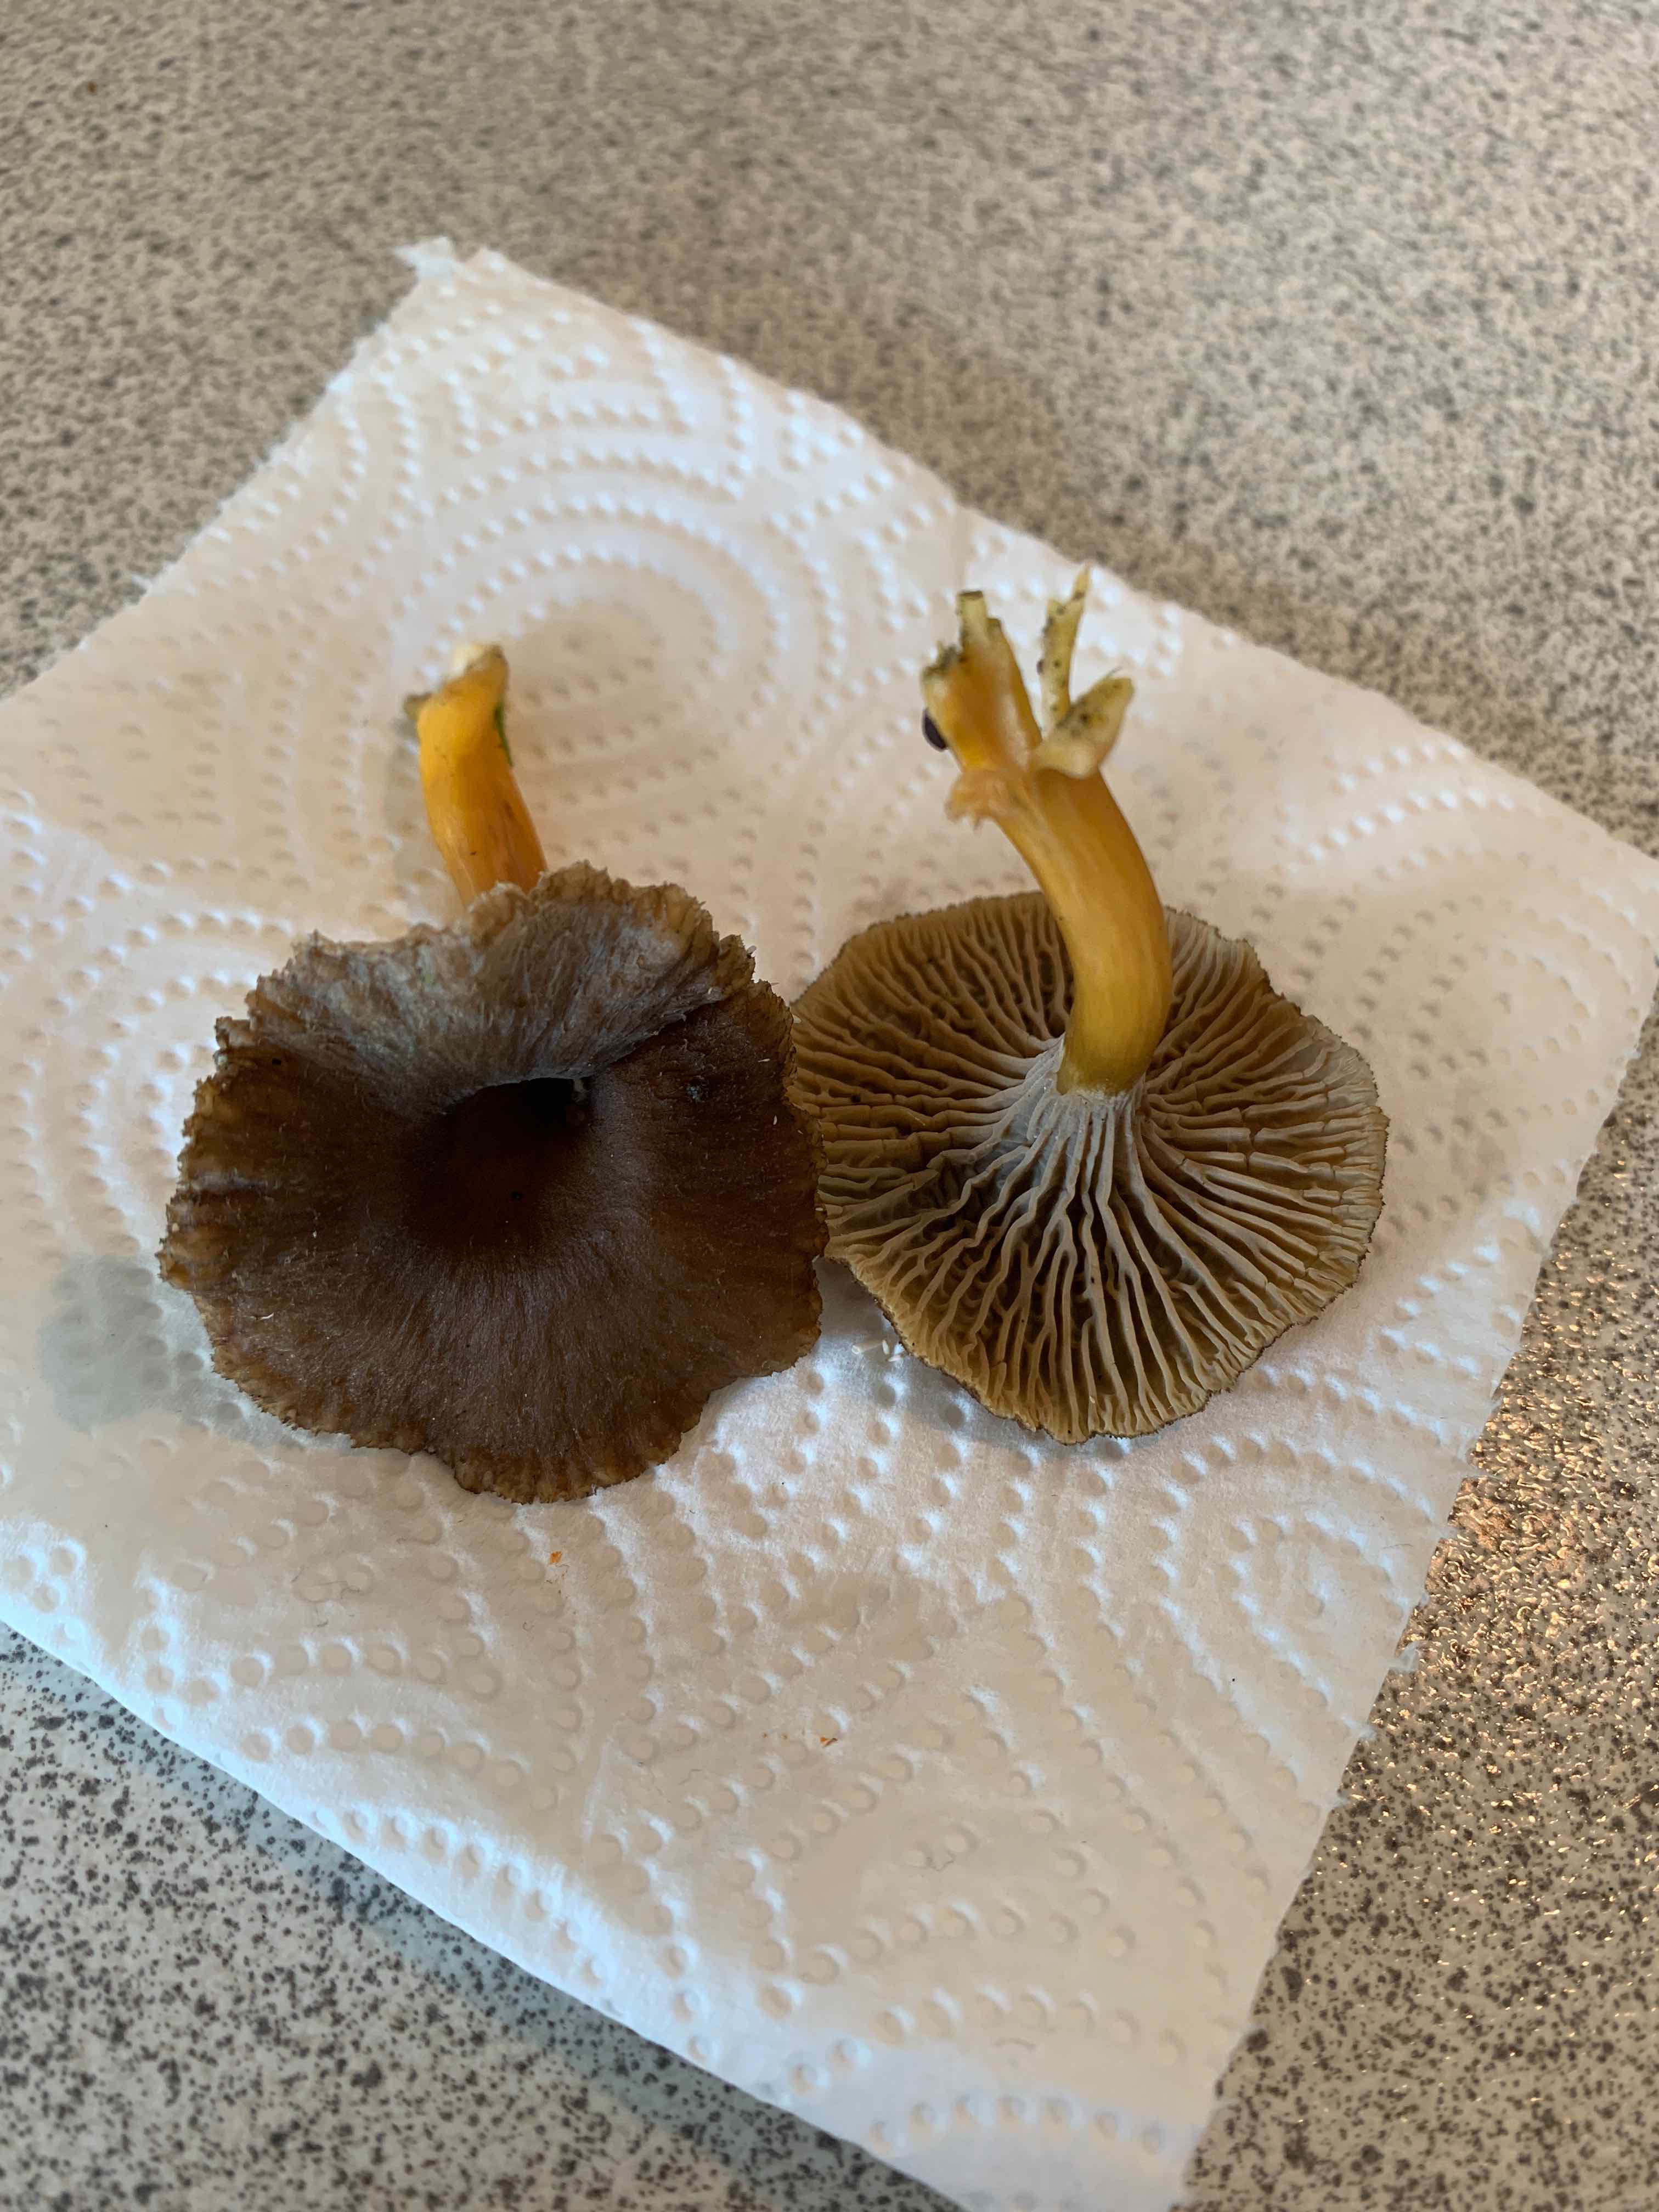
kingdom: Fungi
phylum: Basidiomycota
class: Agaricomycetes
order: Cantharellales
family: Hydnaceae
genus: Craterellus
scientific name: Craterellus tubaeformis
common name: tragt-kantarel
